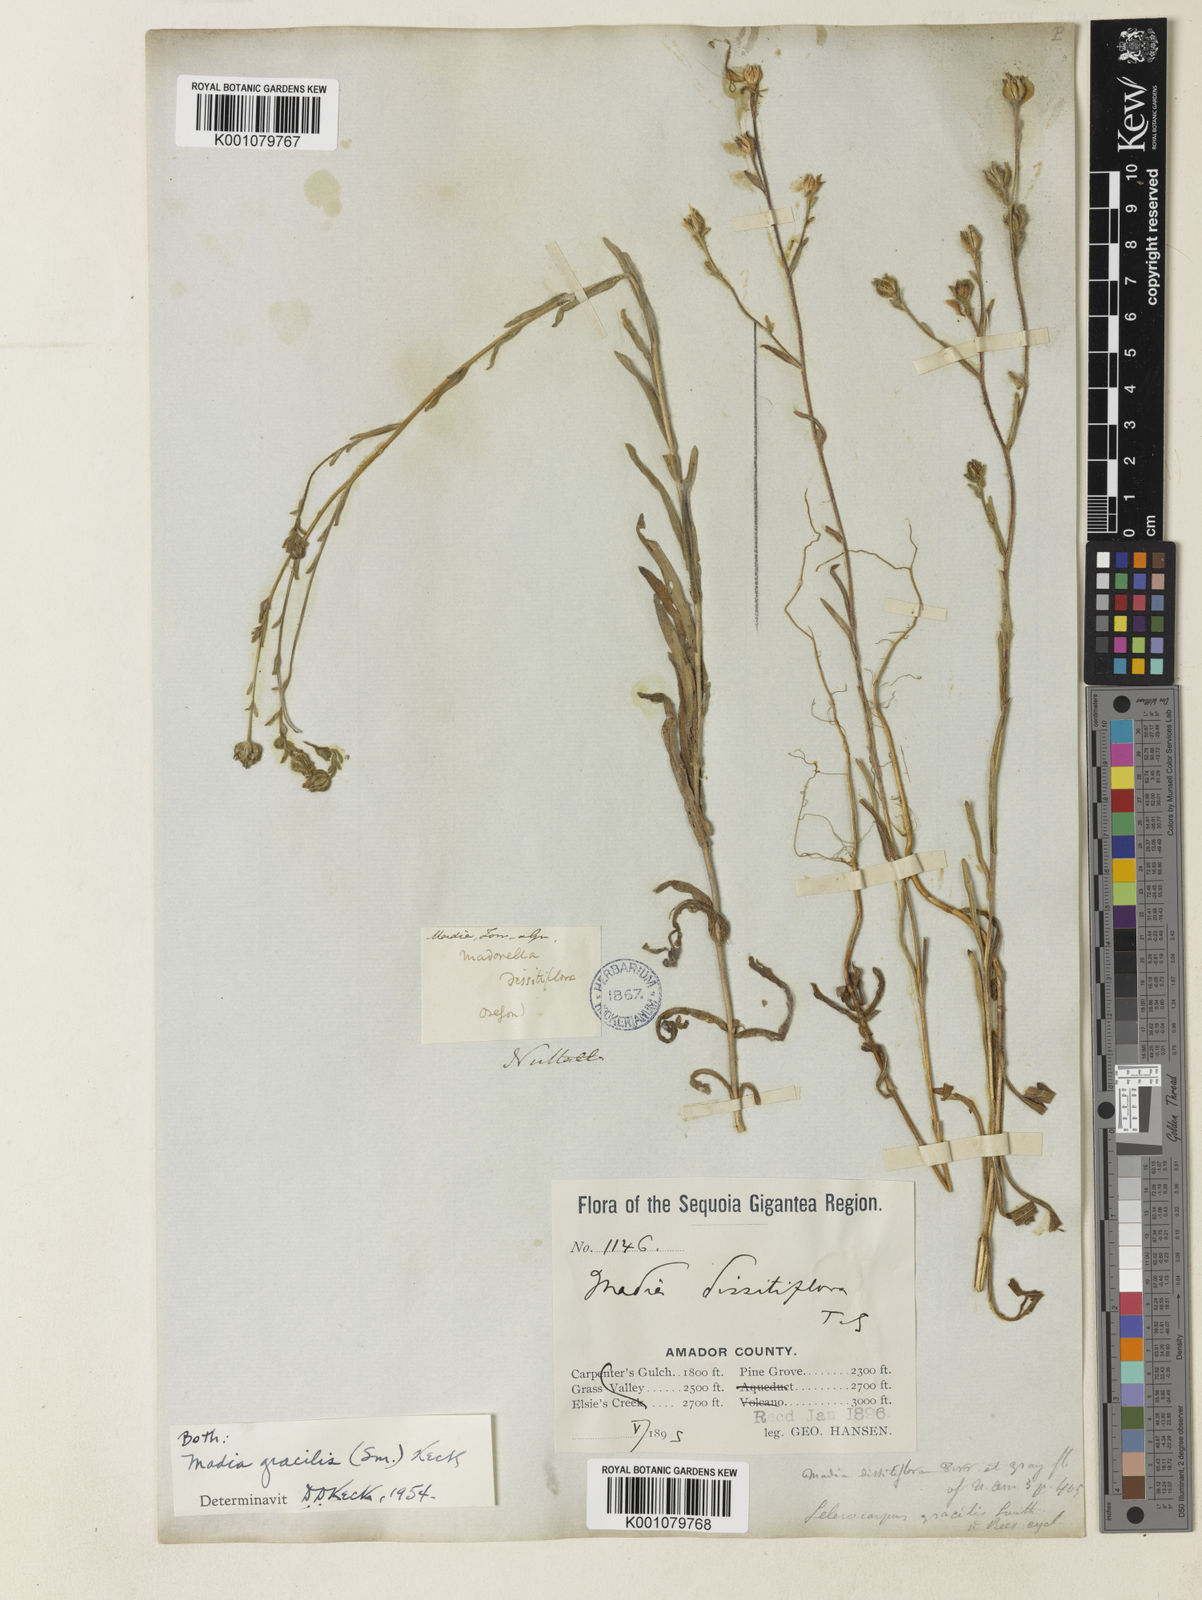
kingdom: Plantae
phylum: Tracheophyta
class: Magnoliopsida
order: Asterales
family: Asteraceae
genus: Madia
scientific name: Madia
